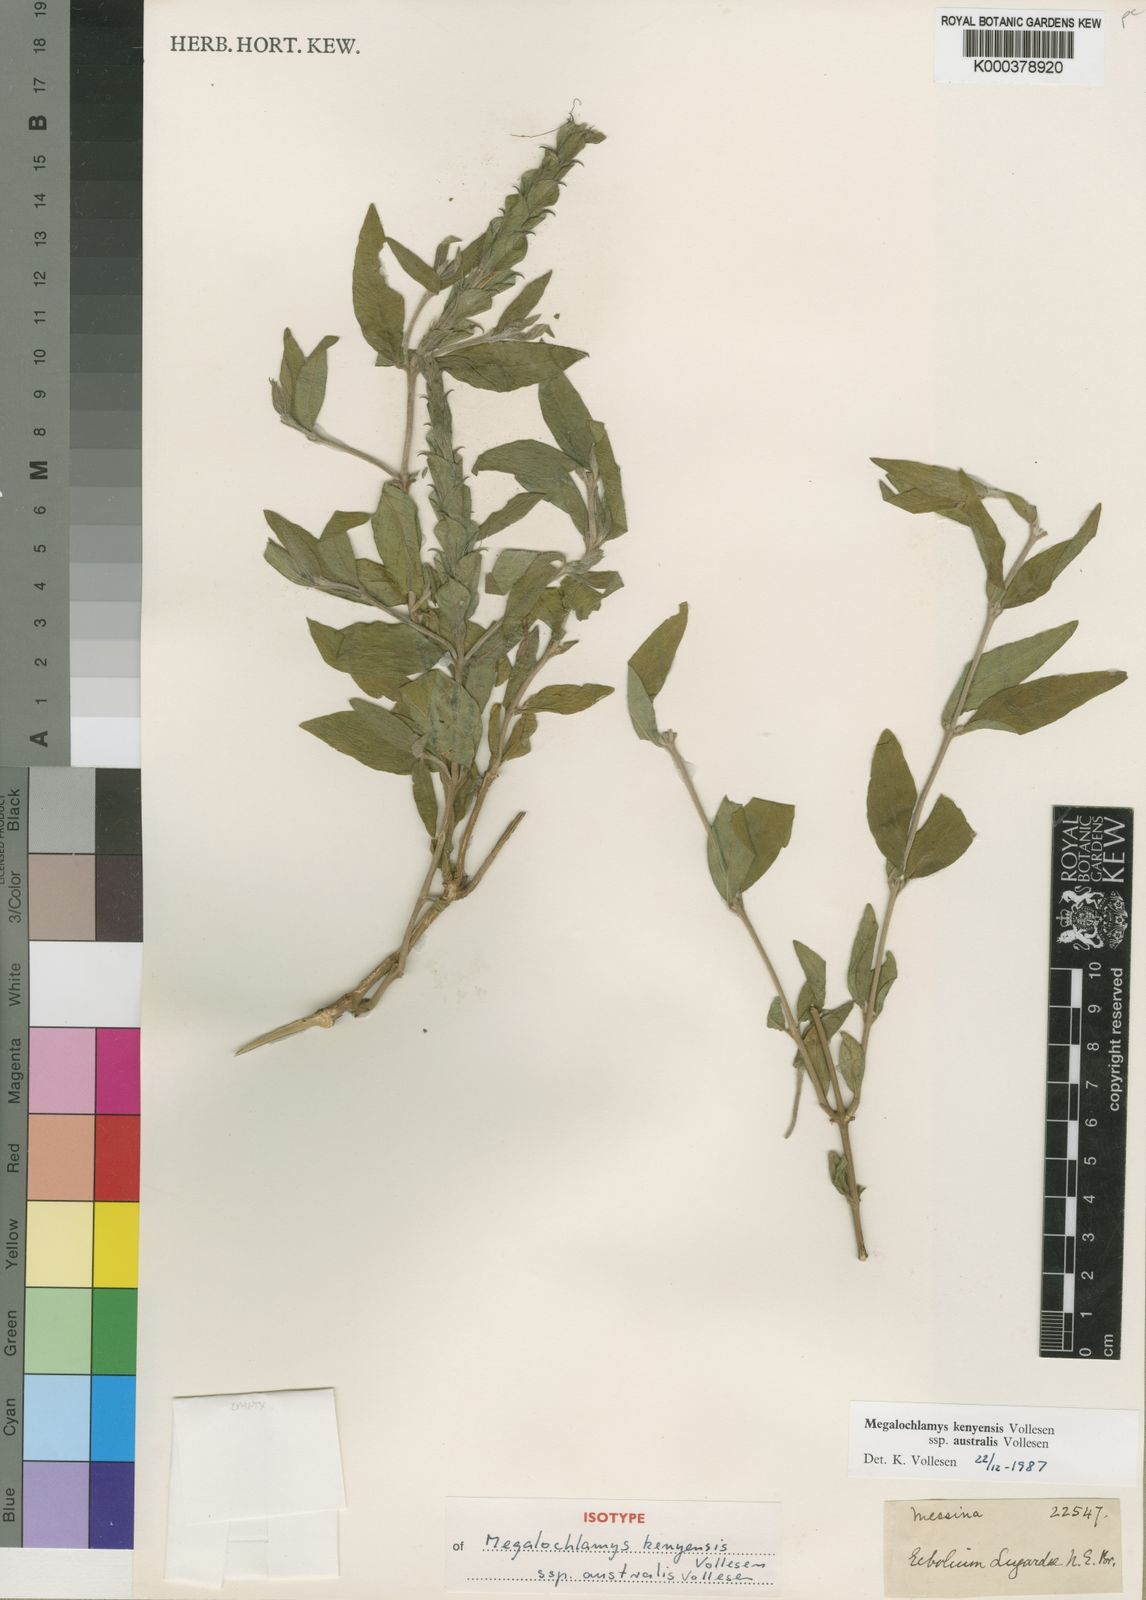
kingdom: Plantae
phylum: Tracheophyta
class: Magnoliopsida
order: Lamiales
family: Acanthaceae
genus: Megalochlamys
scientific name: Megalochlamys kenyensis
